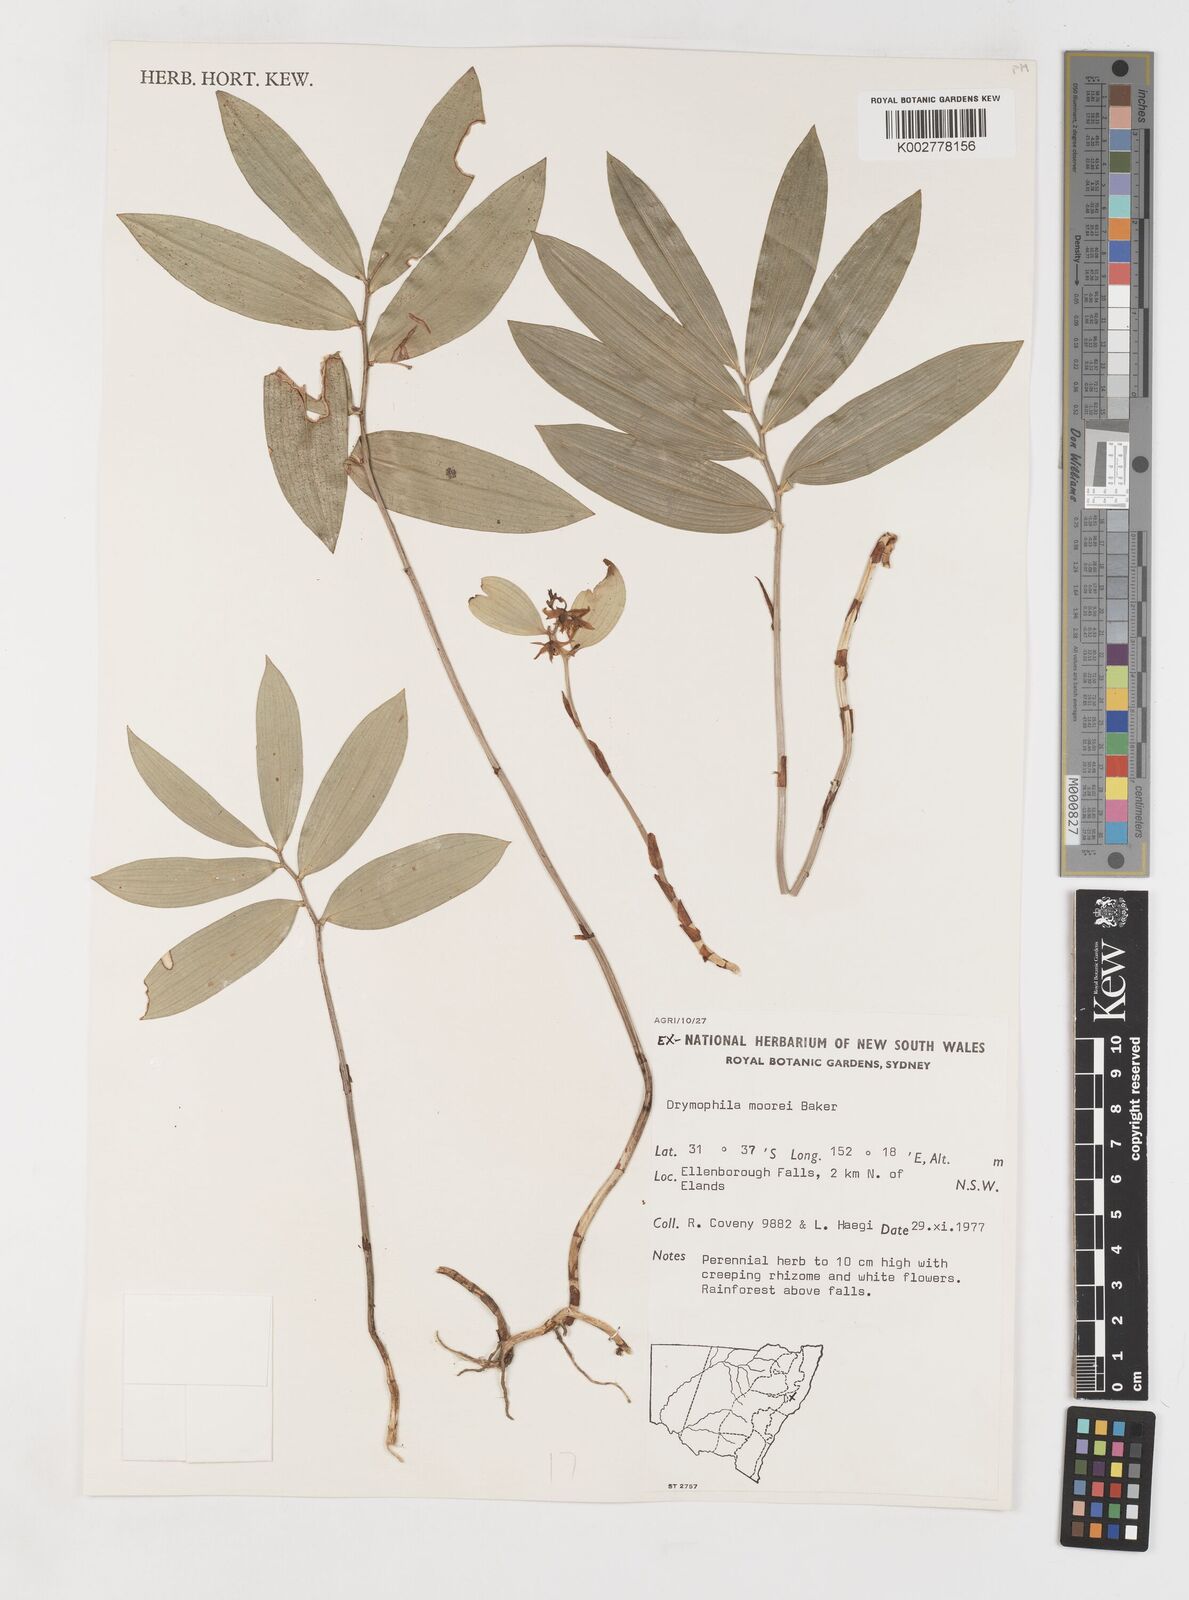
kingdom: Plantae
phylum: Tracheophyta
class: Liliopsida
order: Liliales
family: Alstroemeriaceae
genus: Drymophila
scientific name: Drymophila moorei
